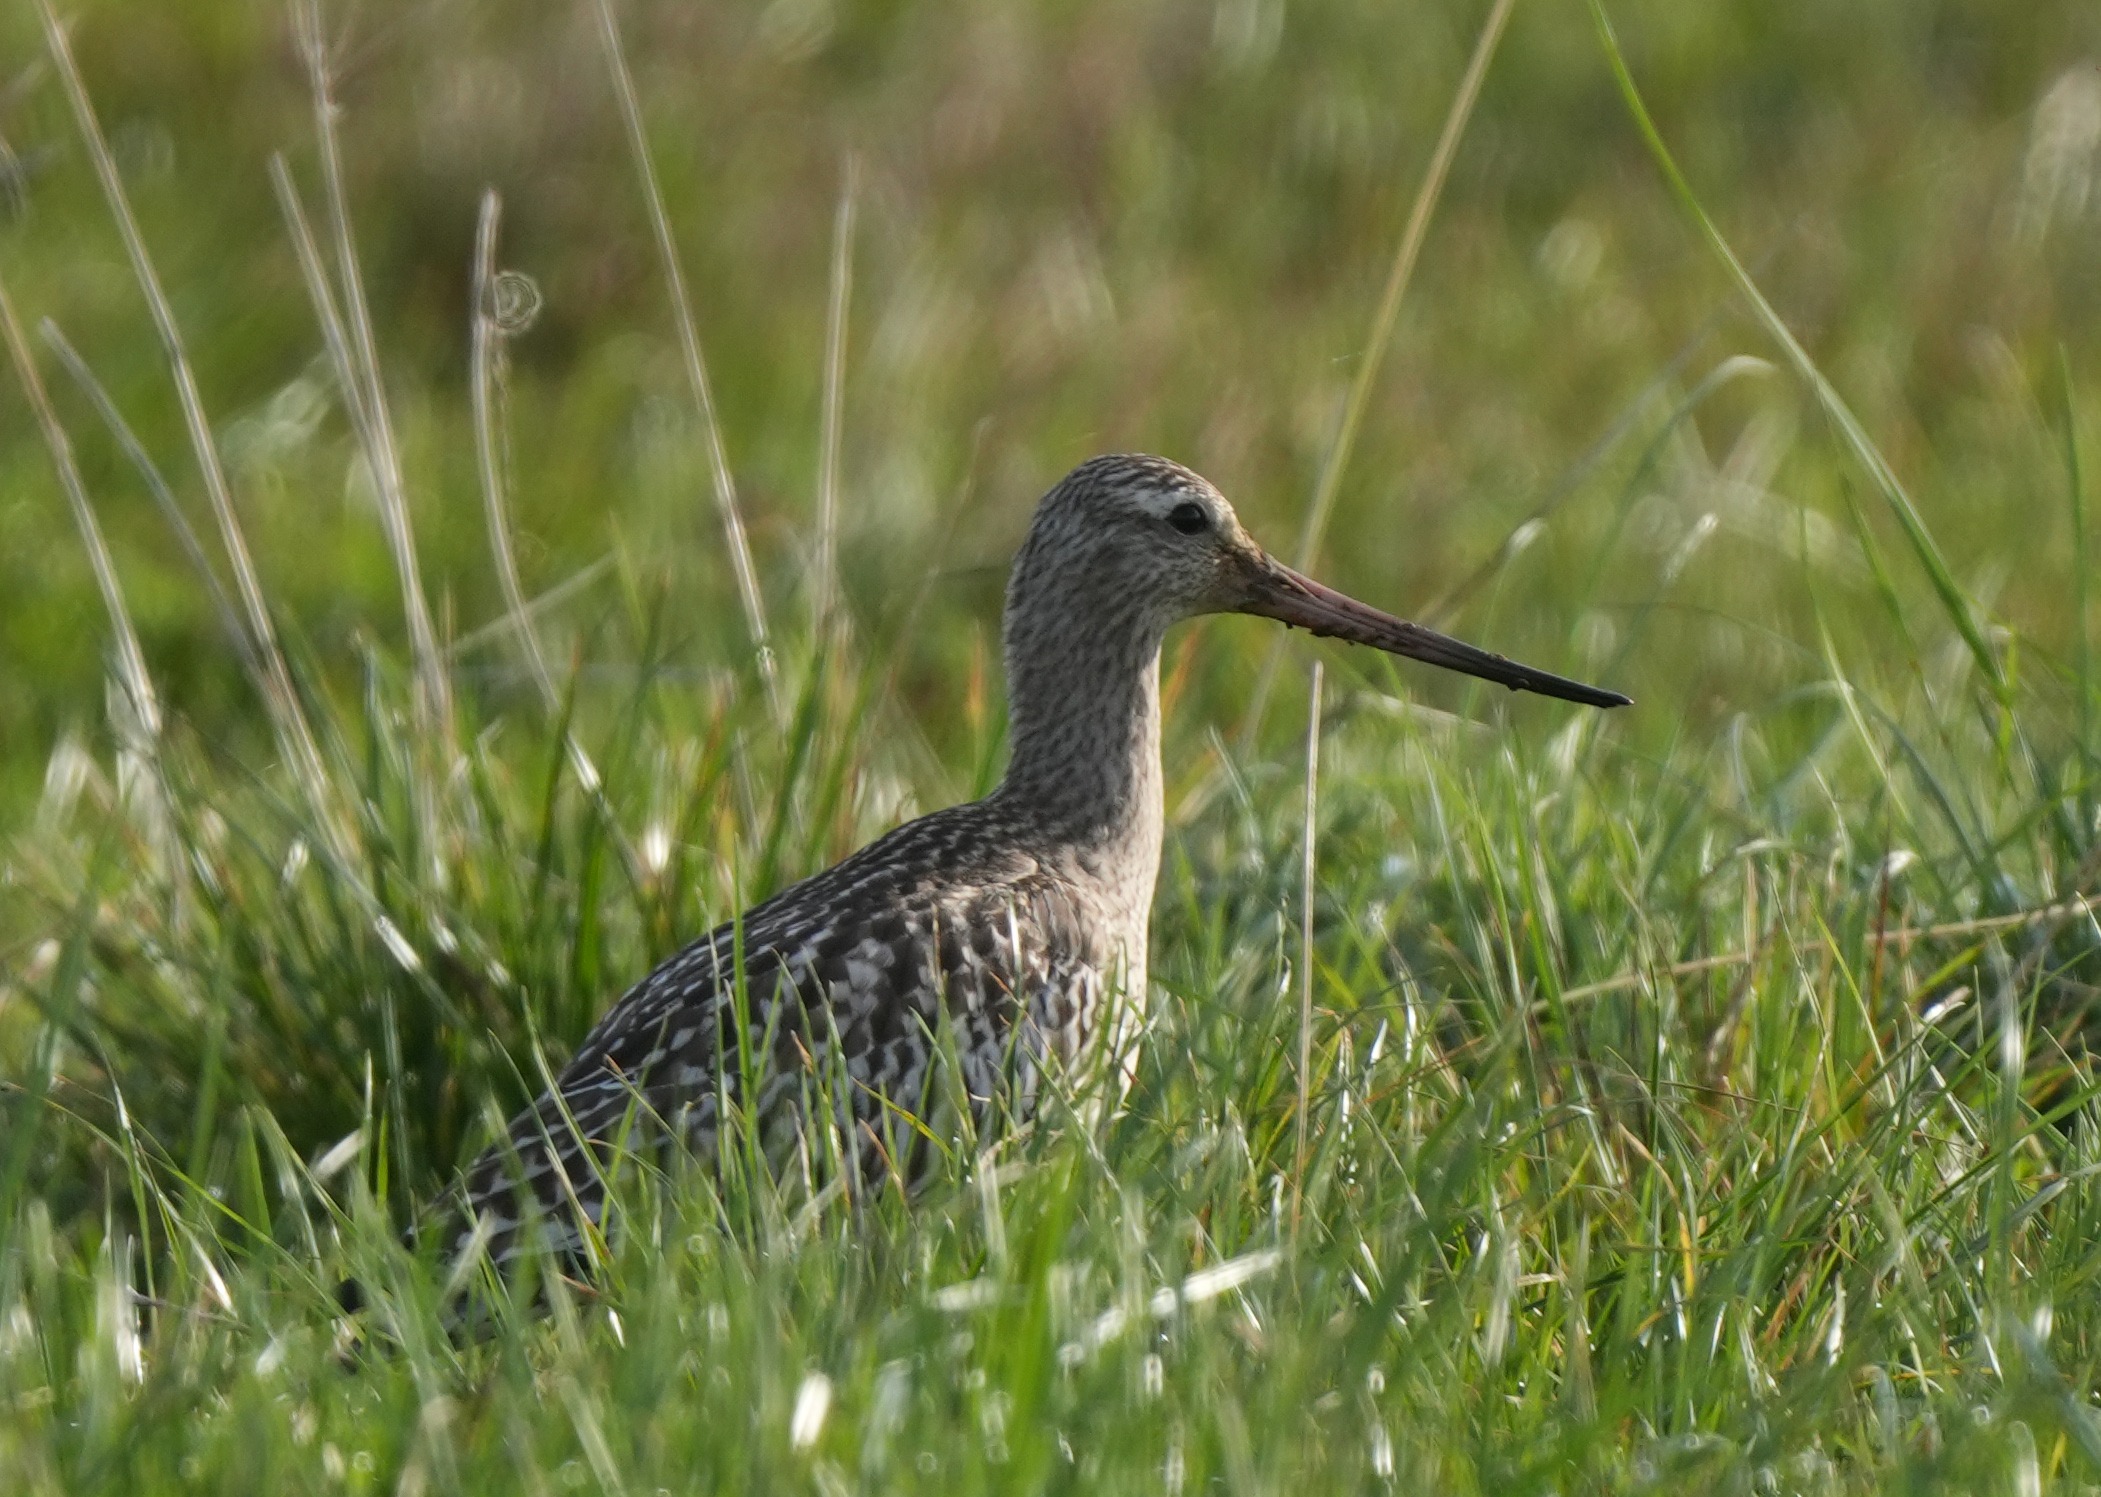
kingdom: Animalia
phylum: Chordata
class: Aves
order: Charadriiformes
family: Scolopacidae
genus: Limosa
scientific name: Limosa lapponica
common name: Lille kobbersneppe
